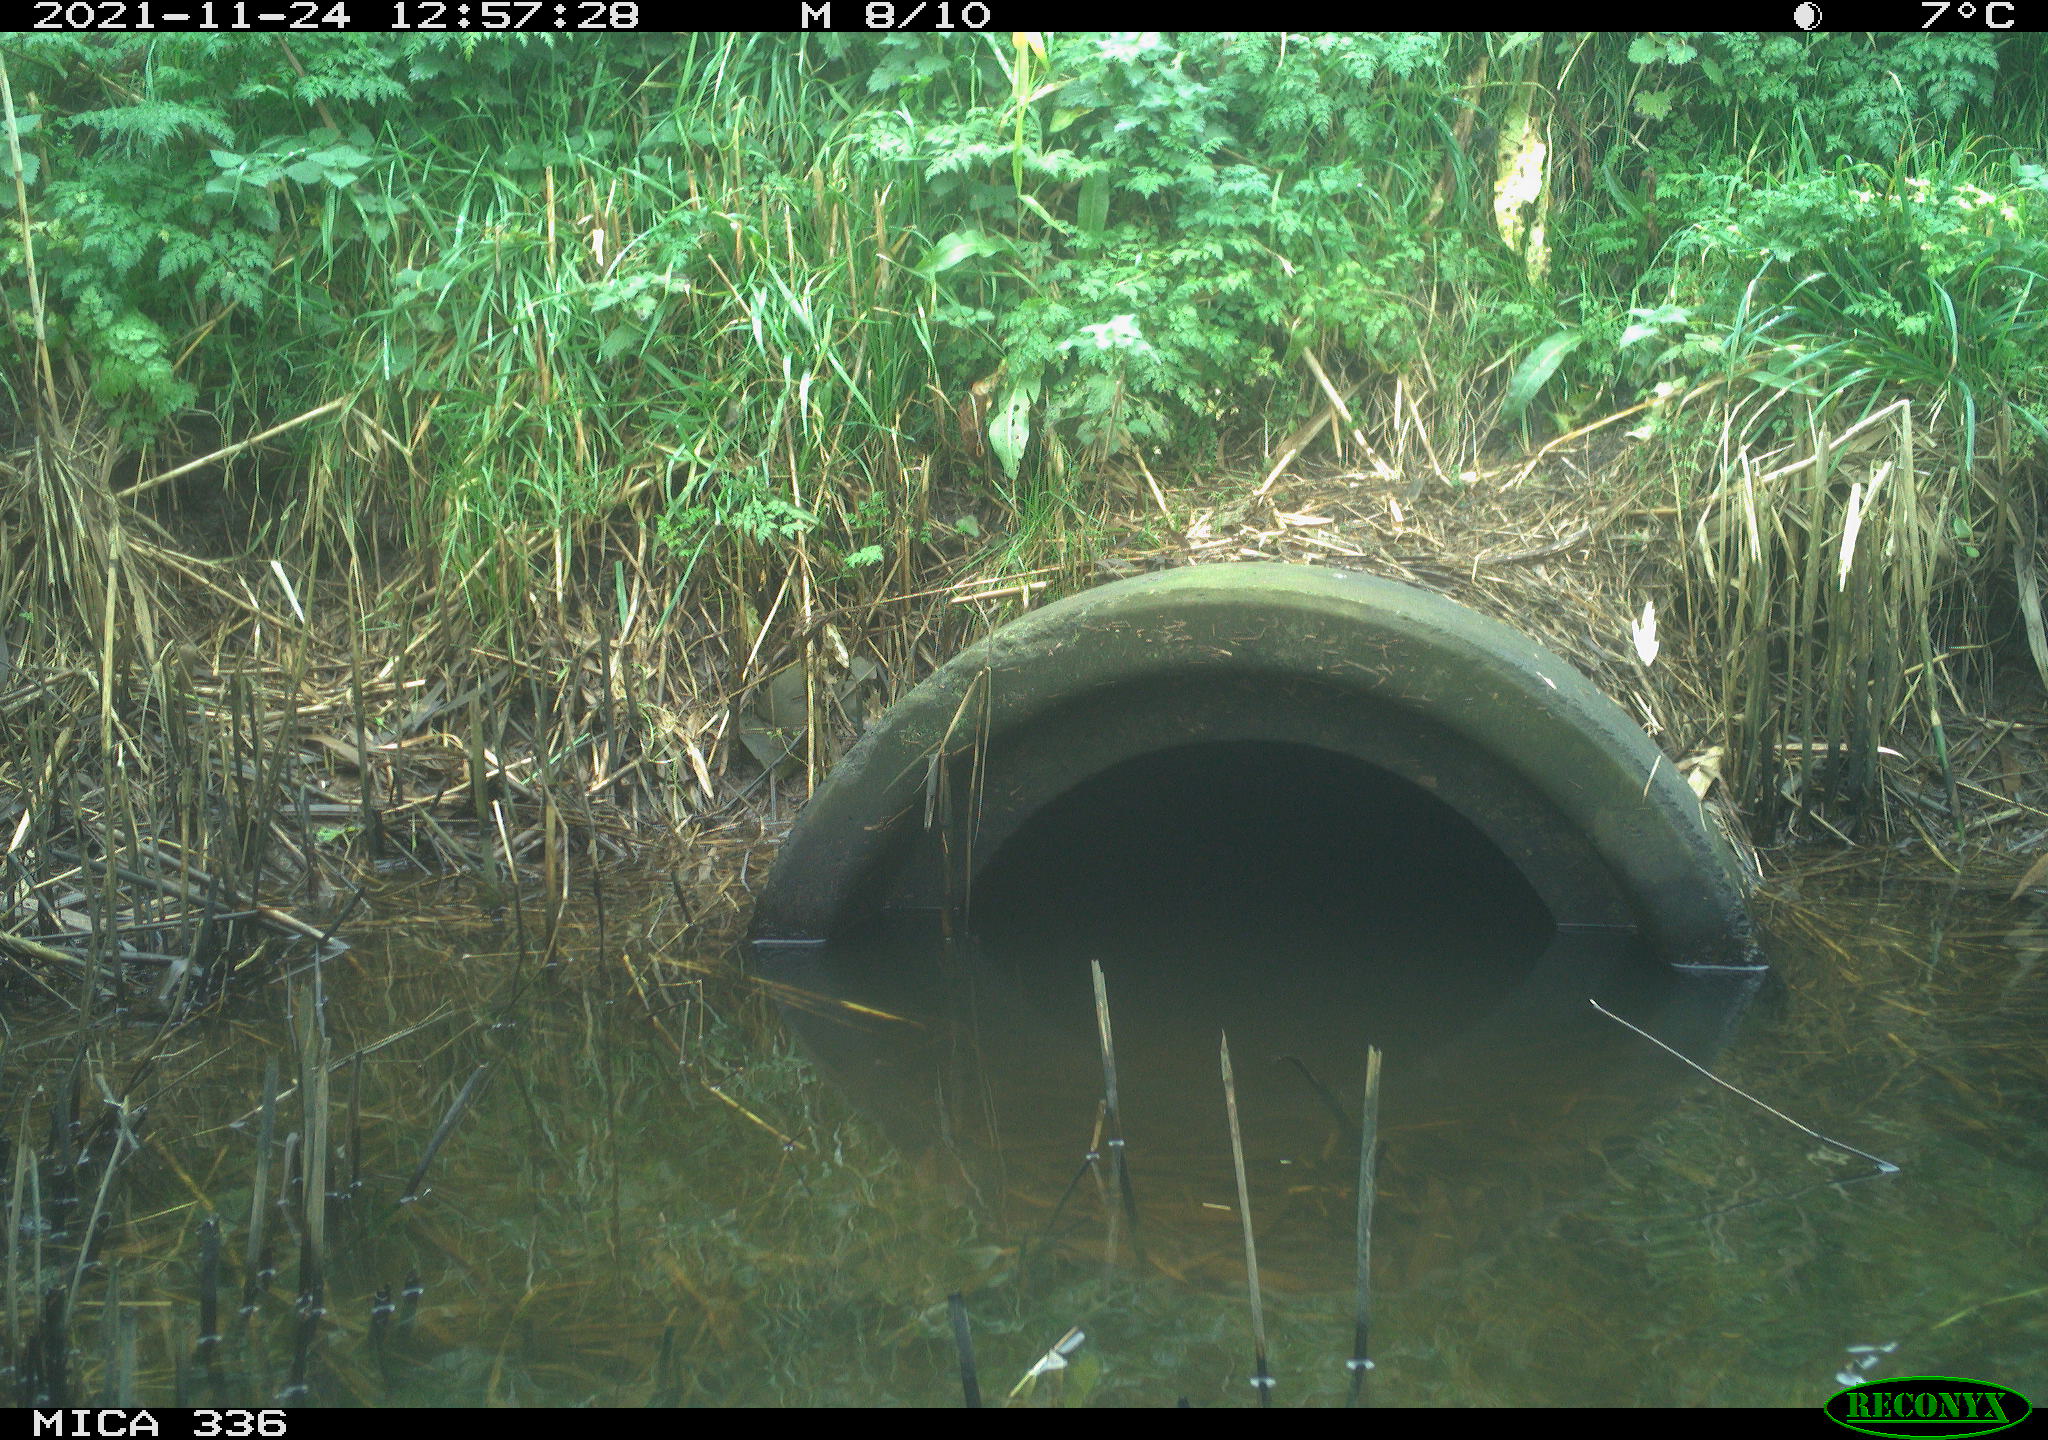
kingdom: Animalia
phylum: Chordata
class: Aves
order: Gruiformes
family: Rallidae
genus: Gallinula
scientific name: Gallinula chloropus
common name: Common moorhen
